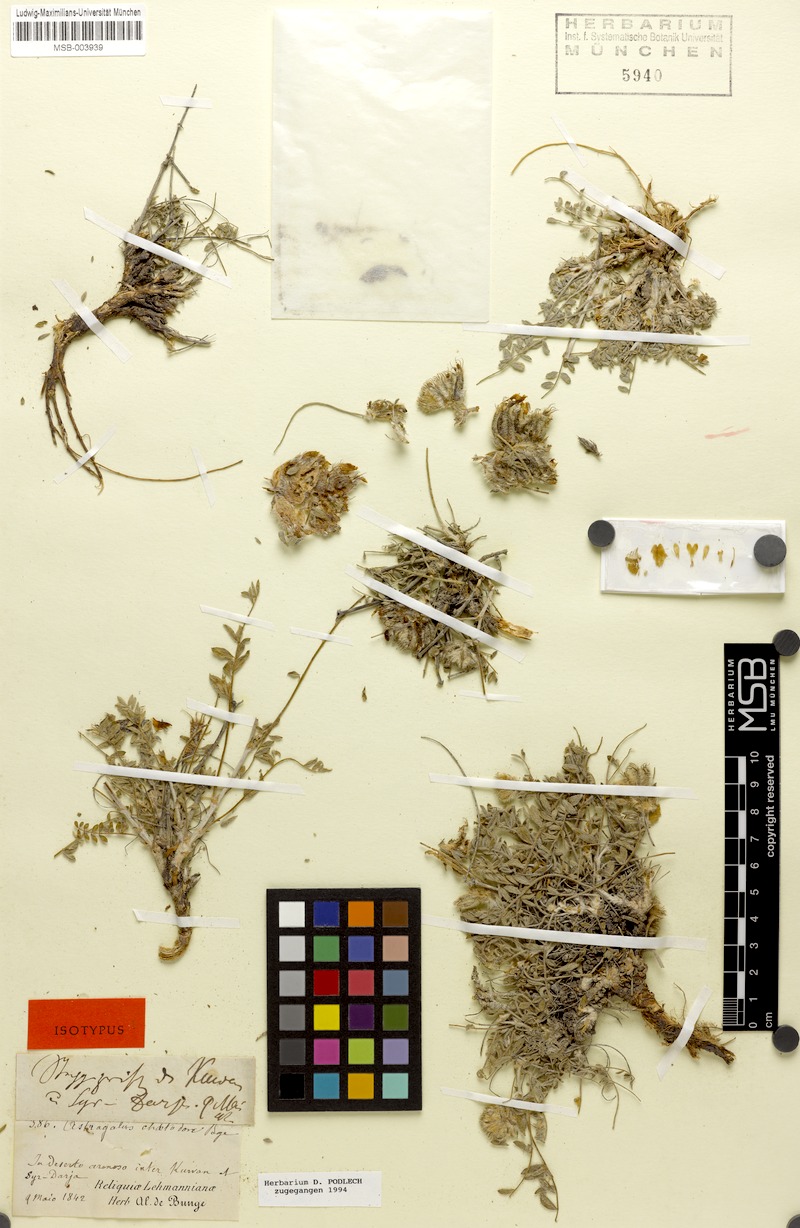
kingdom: Plantae
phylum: Tracheophyta
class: Magnoliopsida
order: Fabales
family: Fabaceae
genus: Astragalus
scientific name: Astragalus chaetodon
